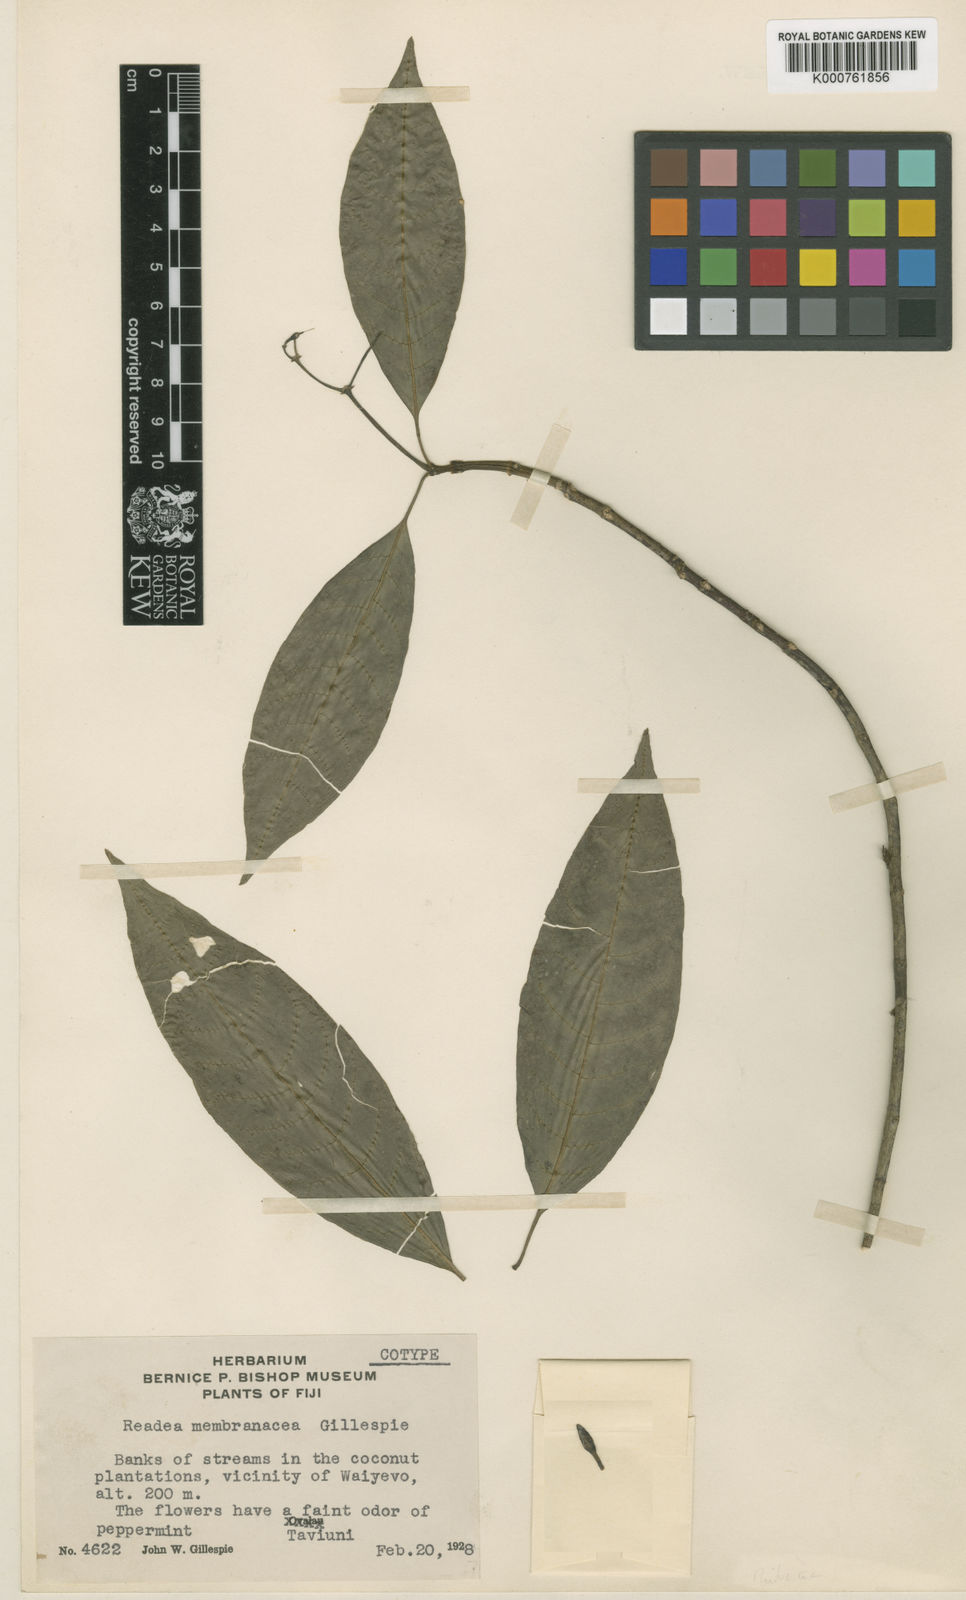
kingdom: Plantae
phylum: Tracheophyta
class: Magnoliopsida
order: Gentianales
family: Rubiaceae
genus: Eumachia
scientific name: Eumachia membranacea
